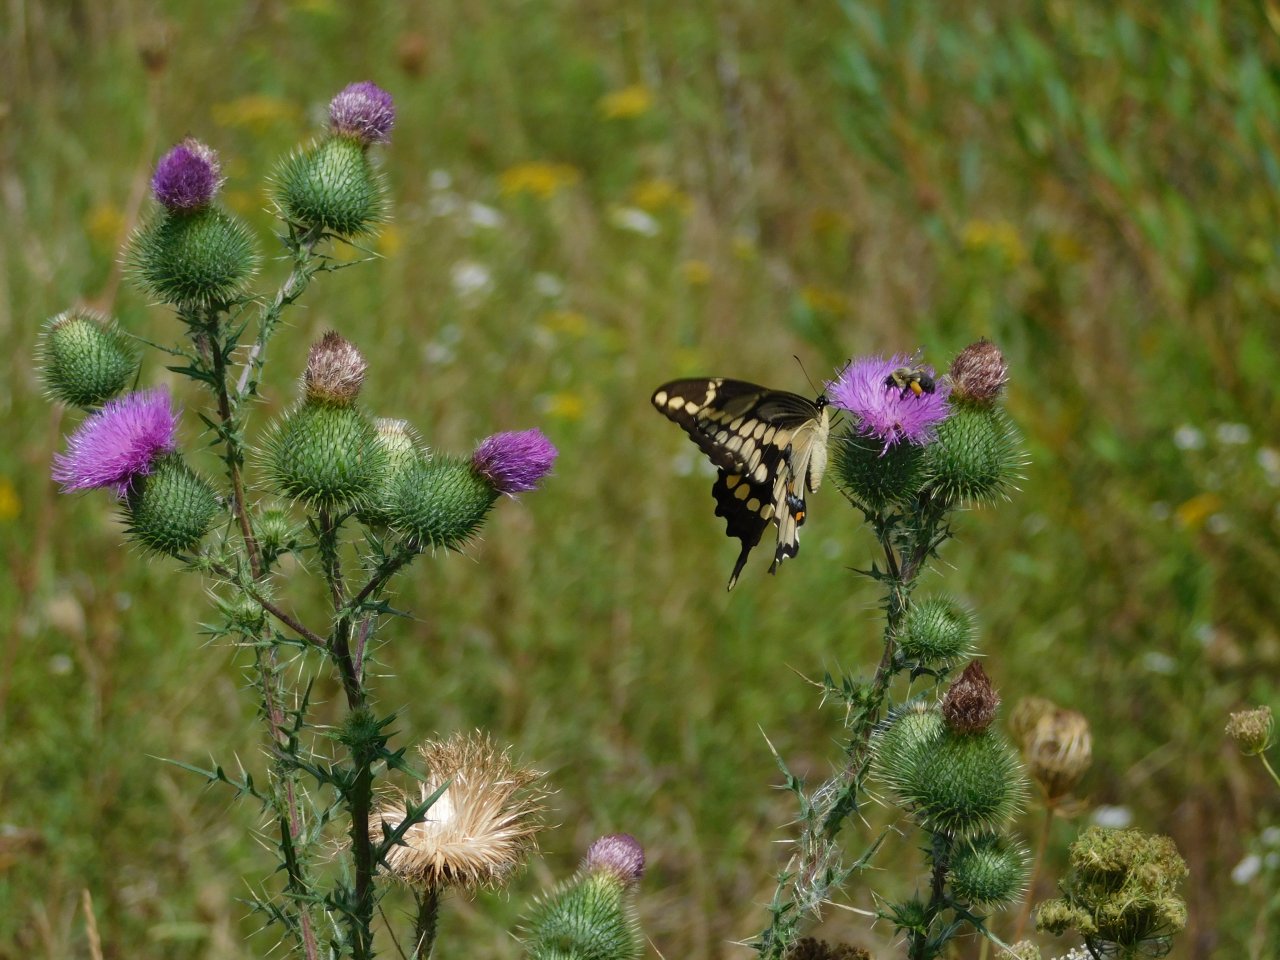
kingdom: Animalia
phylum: Arthropoda
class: Insecta
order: Lepidoptera
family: Papilionidae
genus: Papilio
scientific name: Papilio cresphontes
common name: Eastern Giant Swallowtail
